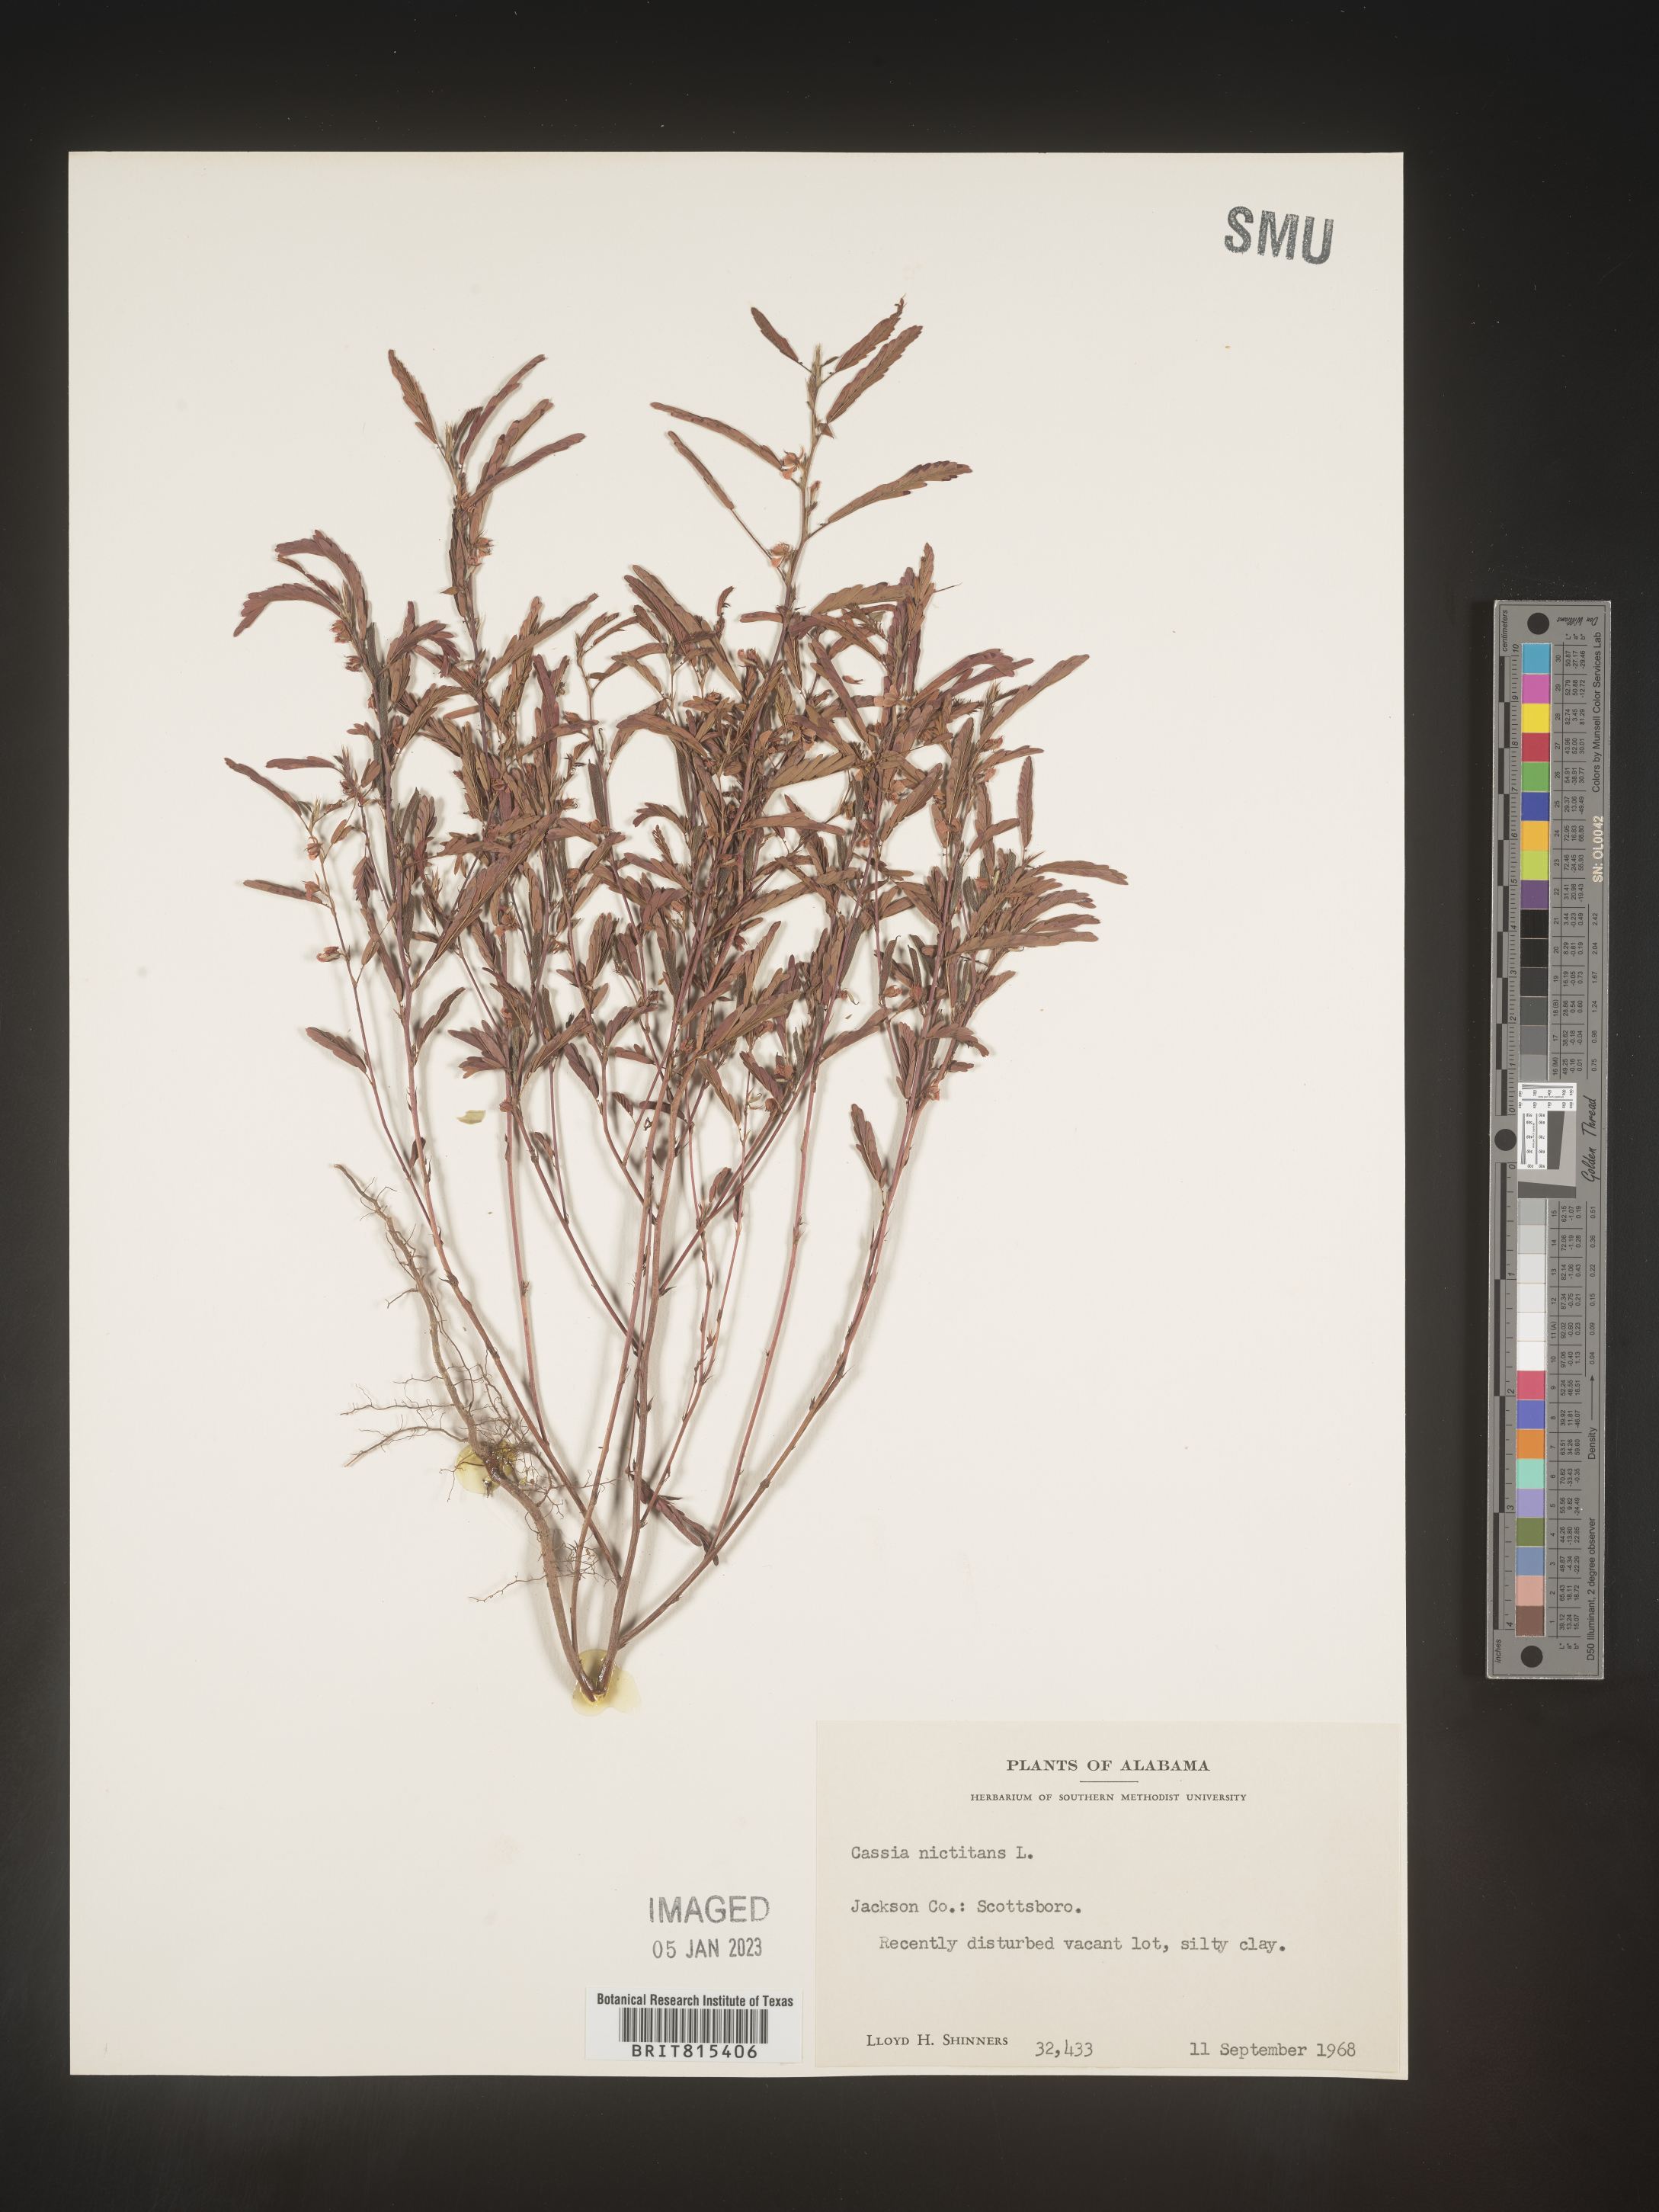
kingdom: Plantae
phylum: Tracheophyta
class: Magnoliopsida
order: Fabales
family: Fabaceae
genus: Chamaecrista
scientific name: Chamaecrista nictitans
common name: Sensitive cassia
